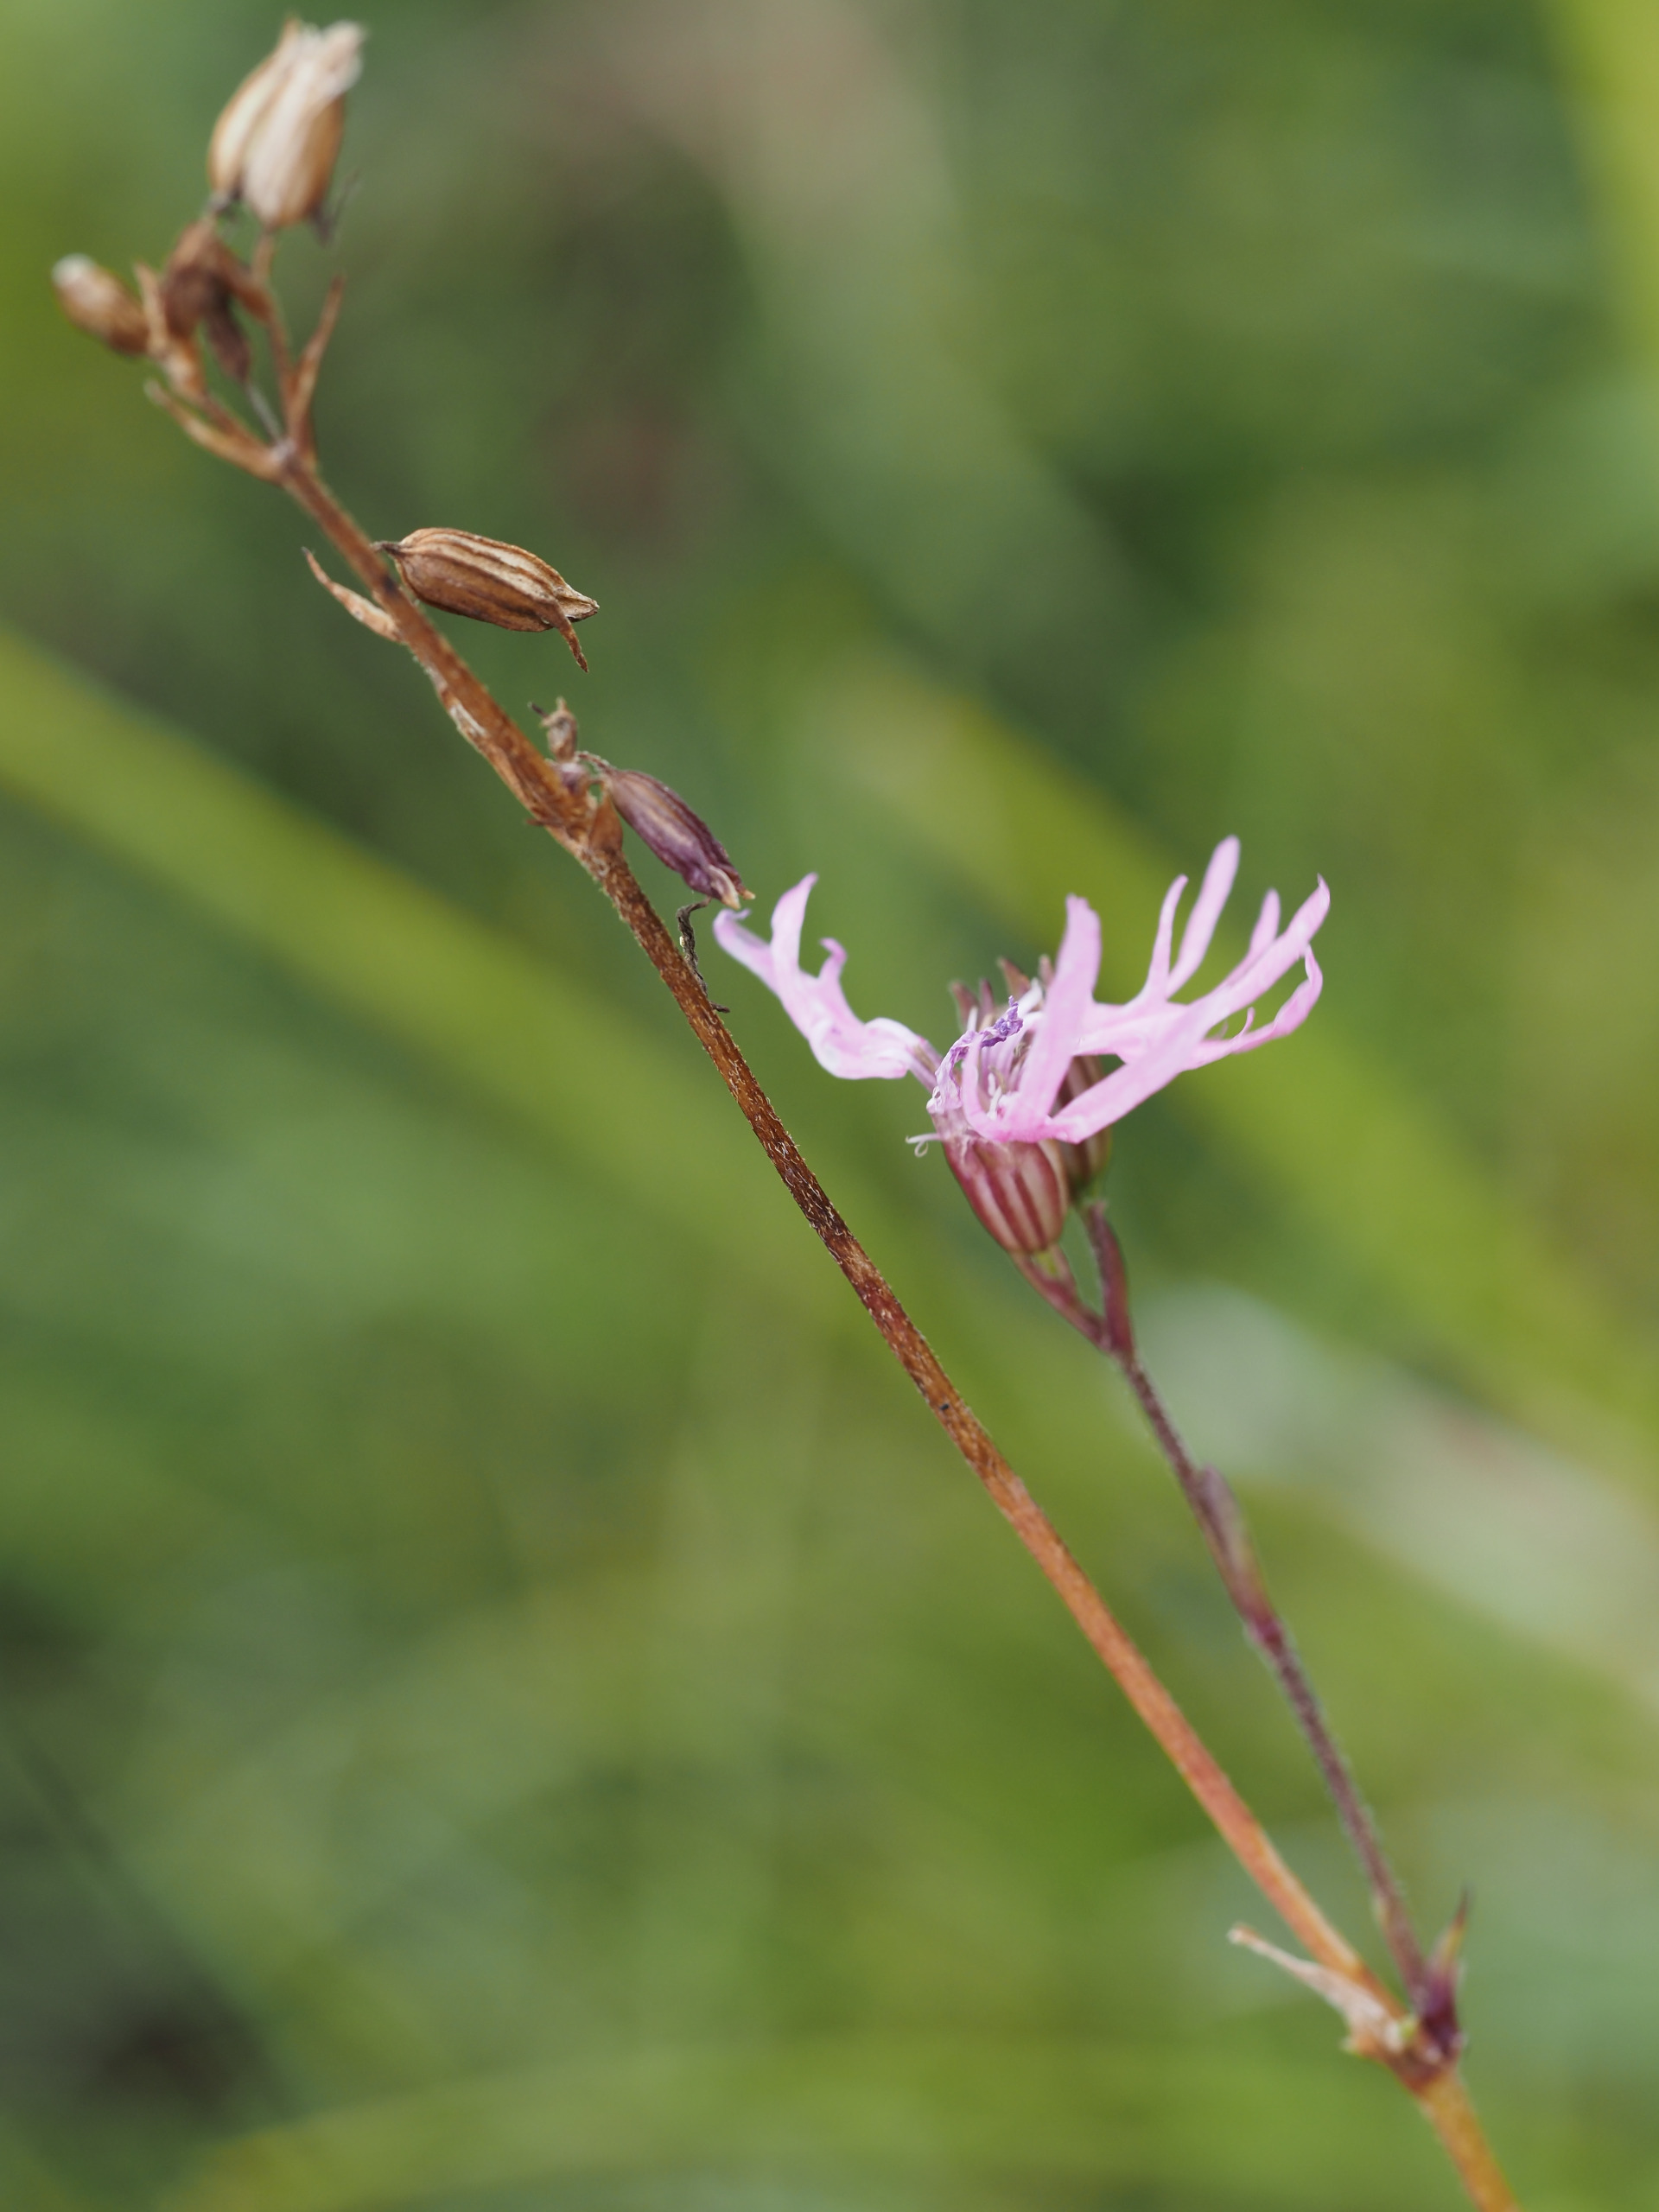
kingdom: Plantae
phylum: Tracheophyta
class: Magnoliopsida
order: Caryophyllales
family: Caryophyllaceae
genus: Silene
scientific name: Silene flos-cuculi
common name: Trævlekrone
